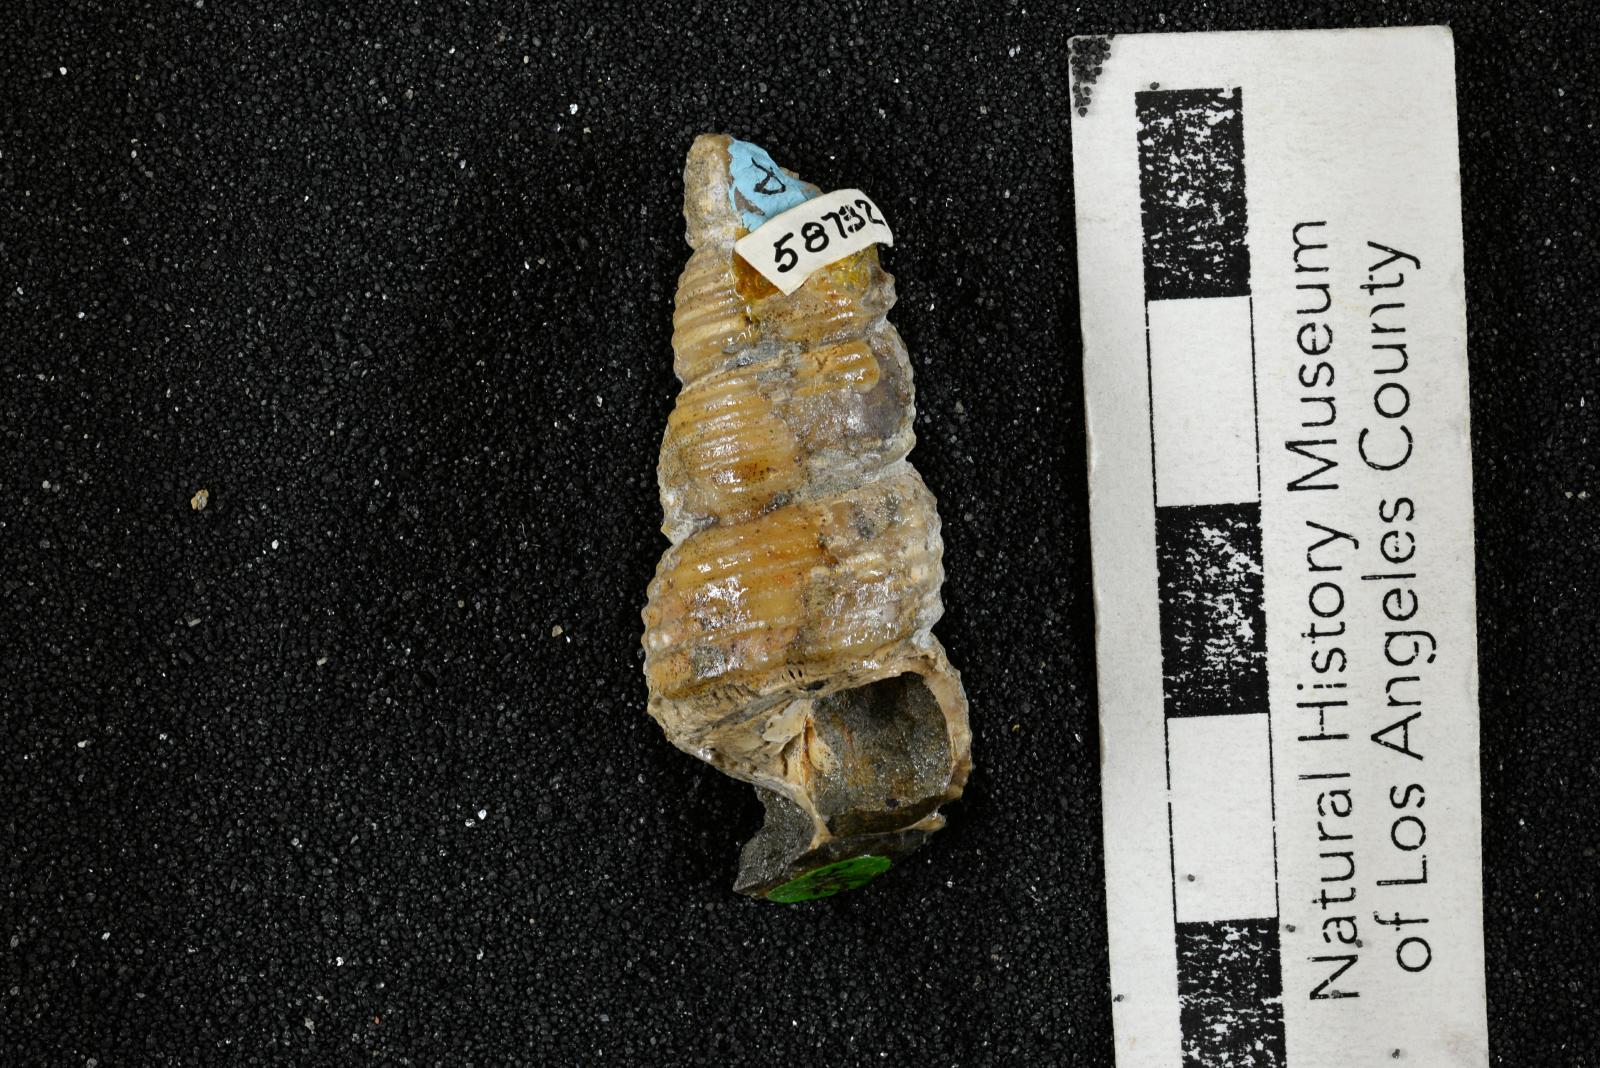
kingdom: Animalia
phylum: Mollusca
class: Gastropoda
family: Turritellidae
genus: Turritella
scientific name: Turritella chicoensis
